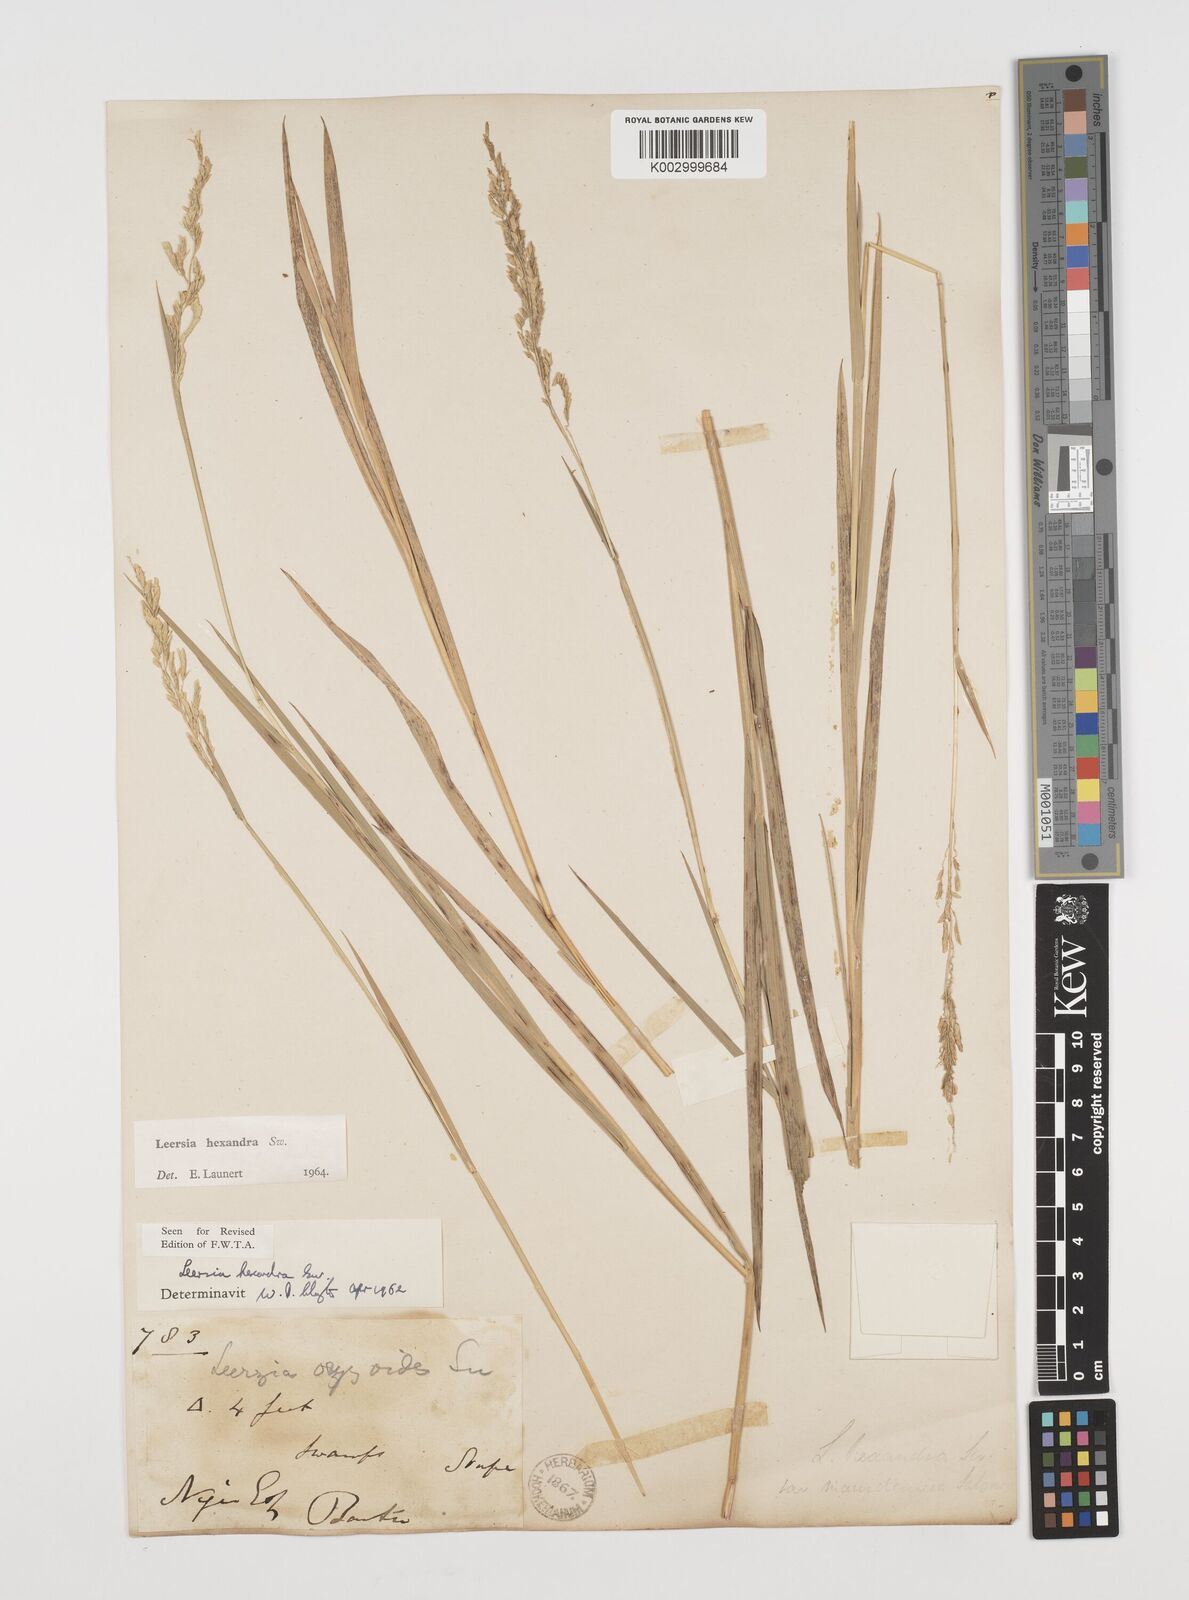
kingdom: Plantae
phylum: Tracheophyta
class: Liliopsida
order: Poales
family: Poaceae
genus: Leersia
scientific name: Leersia hexandra
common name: Southern cut grass
